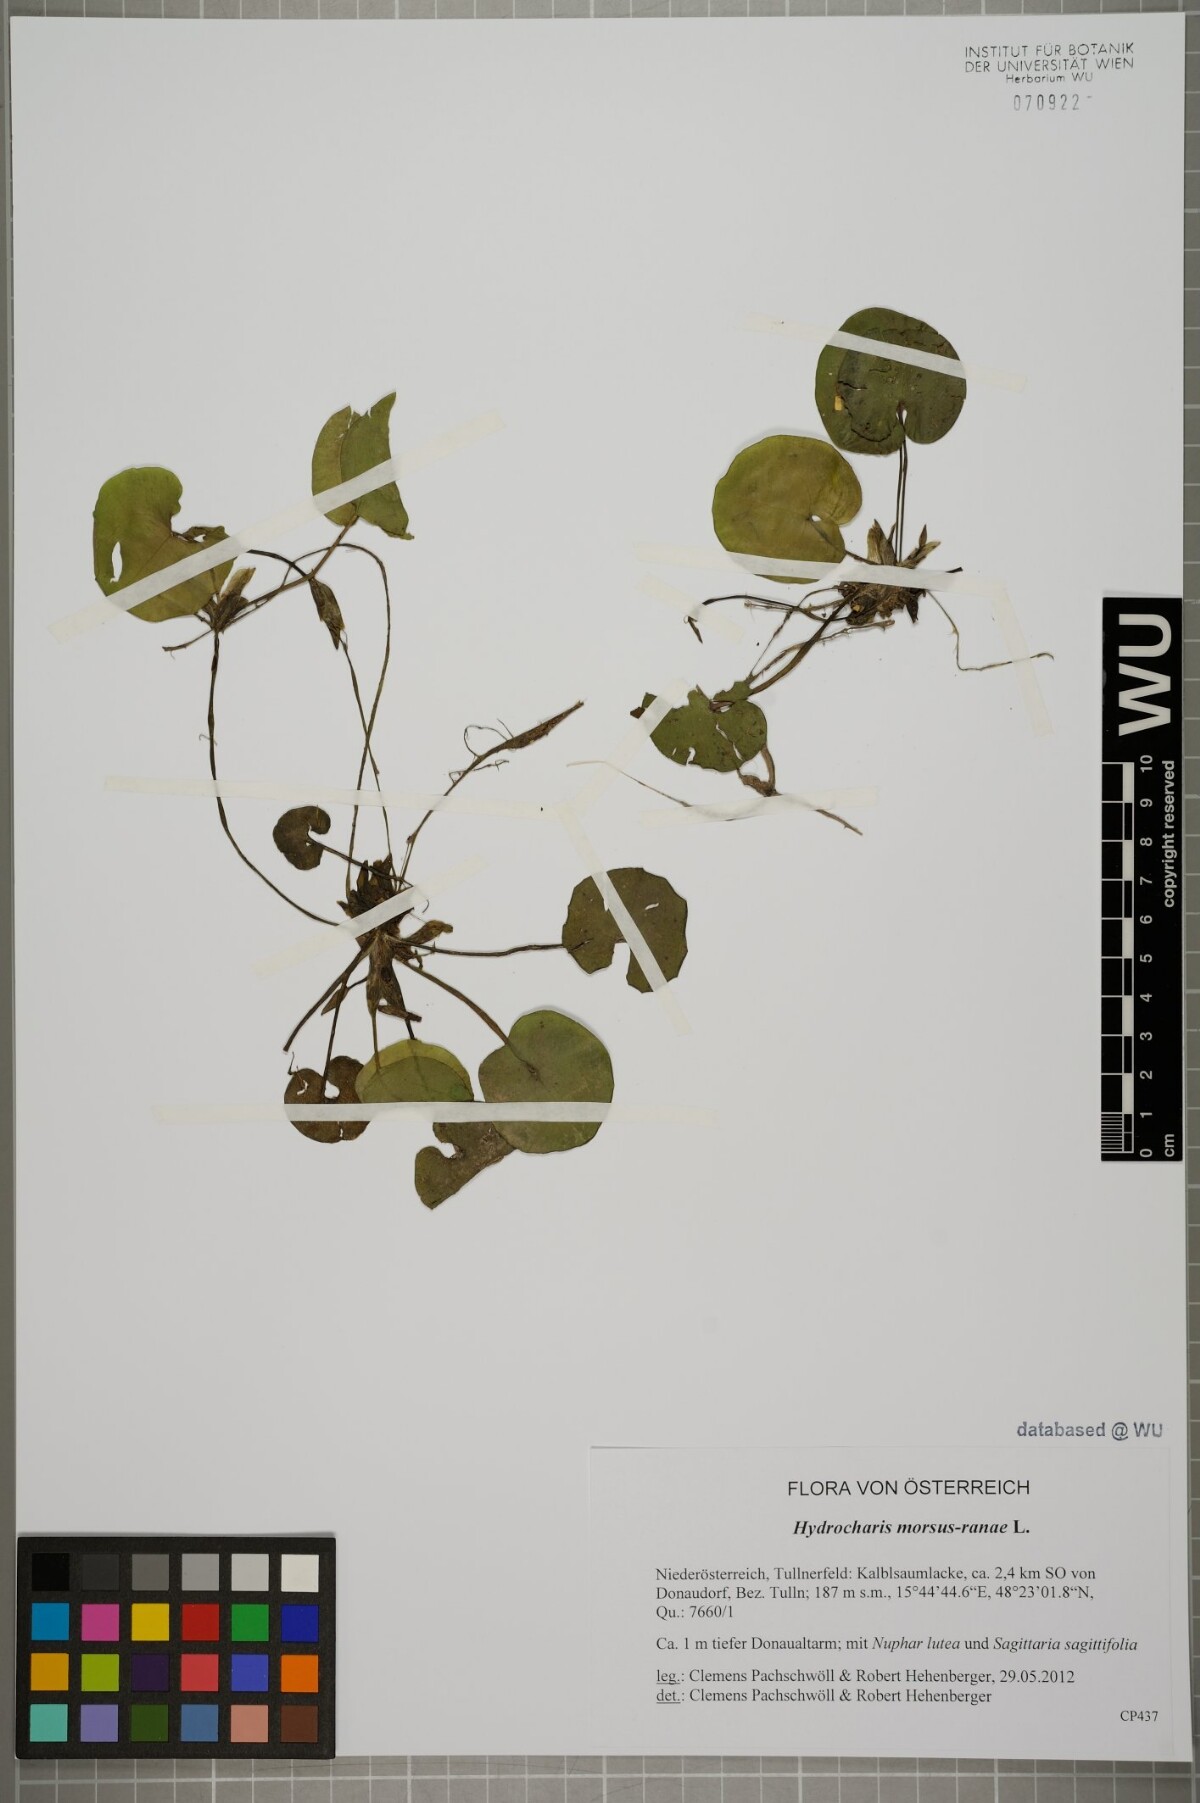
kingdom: Plantae
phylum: Tracheophyta
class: Liliopsida
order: Alismatales
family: Hydrocharitaceae
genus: Hydrocharis
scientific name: Hydrocharis morsus-ranae
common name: Frogbit
